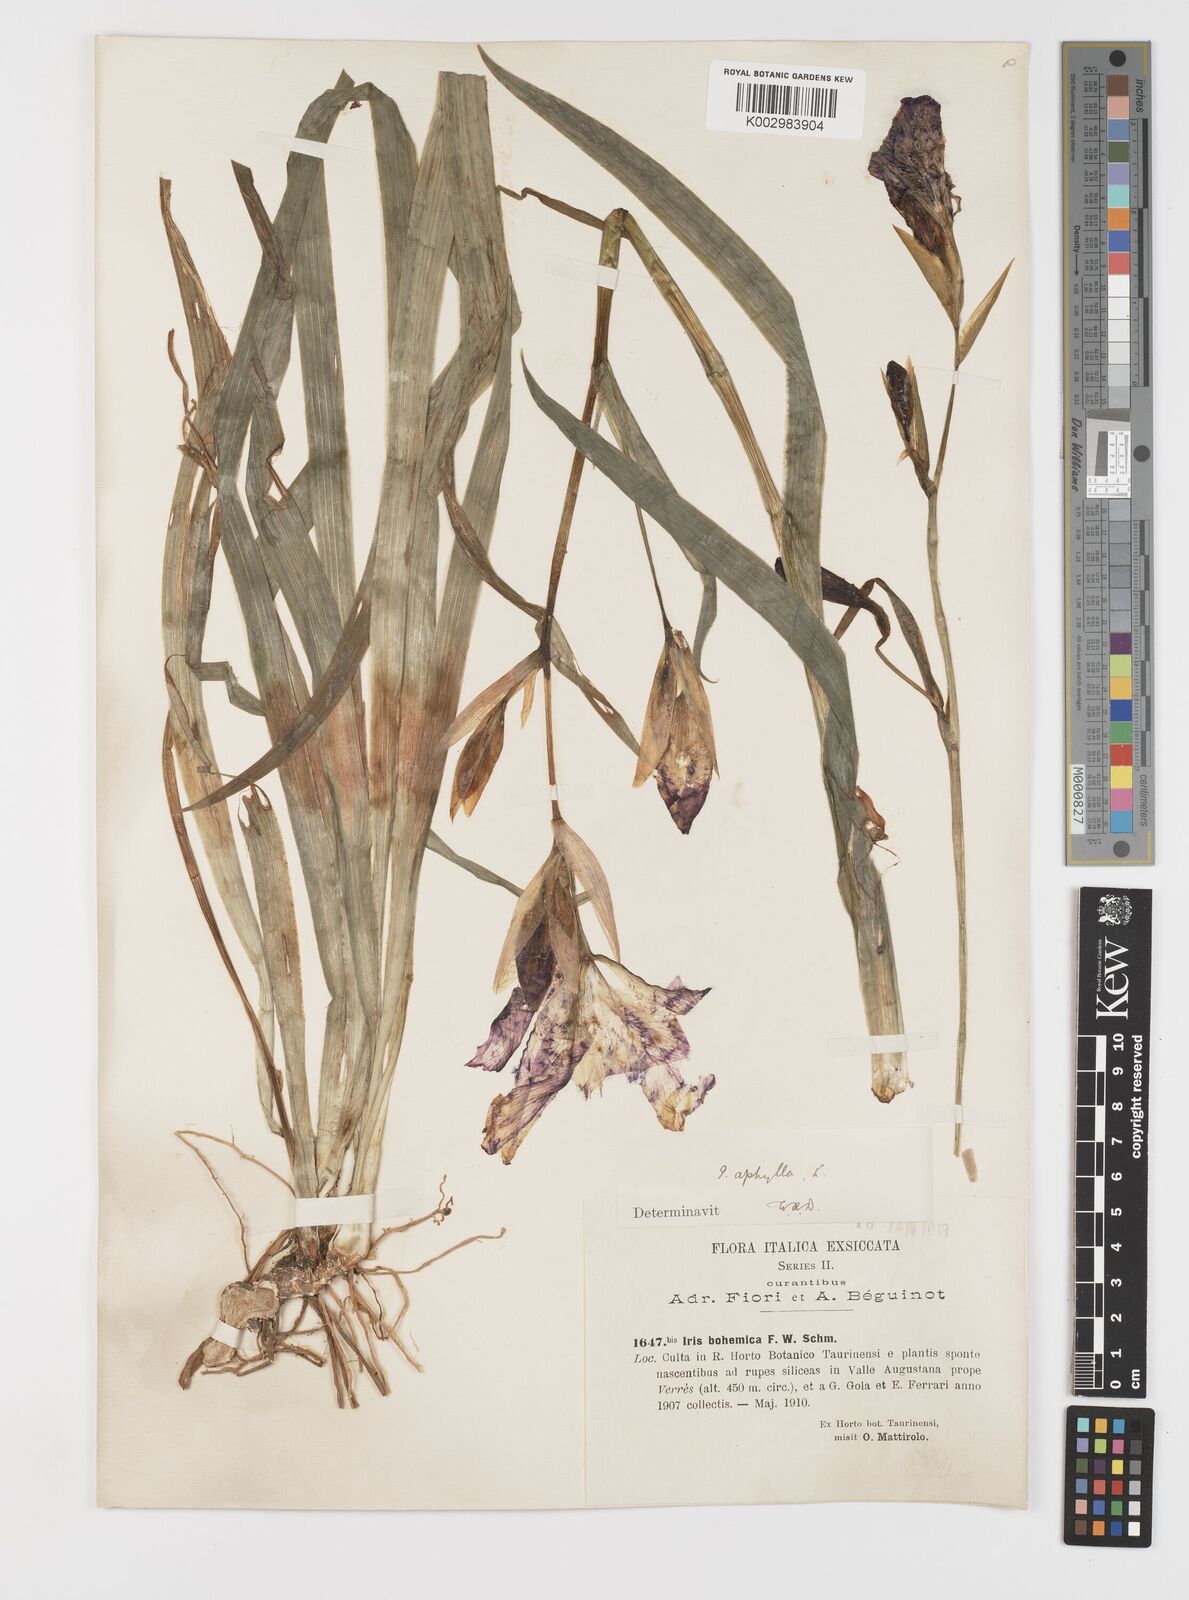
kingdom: Plantae
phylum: Tracheophyta
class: Liliopsida
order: Asparagales
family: Iridaceae
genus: Iris
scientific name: Iris perrieri
